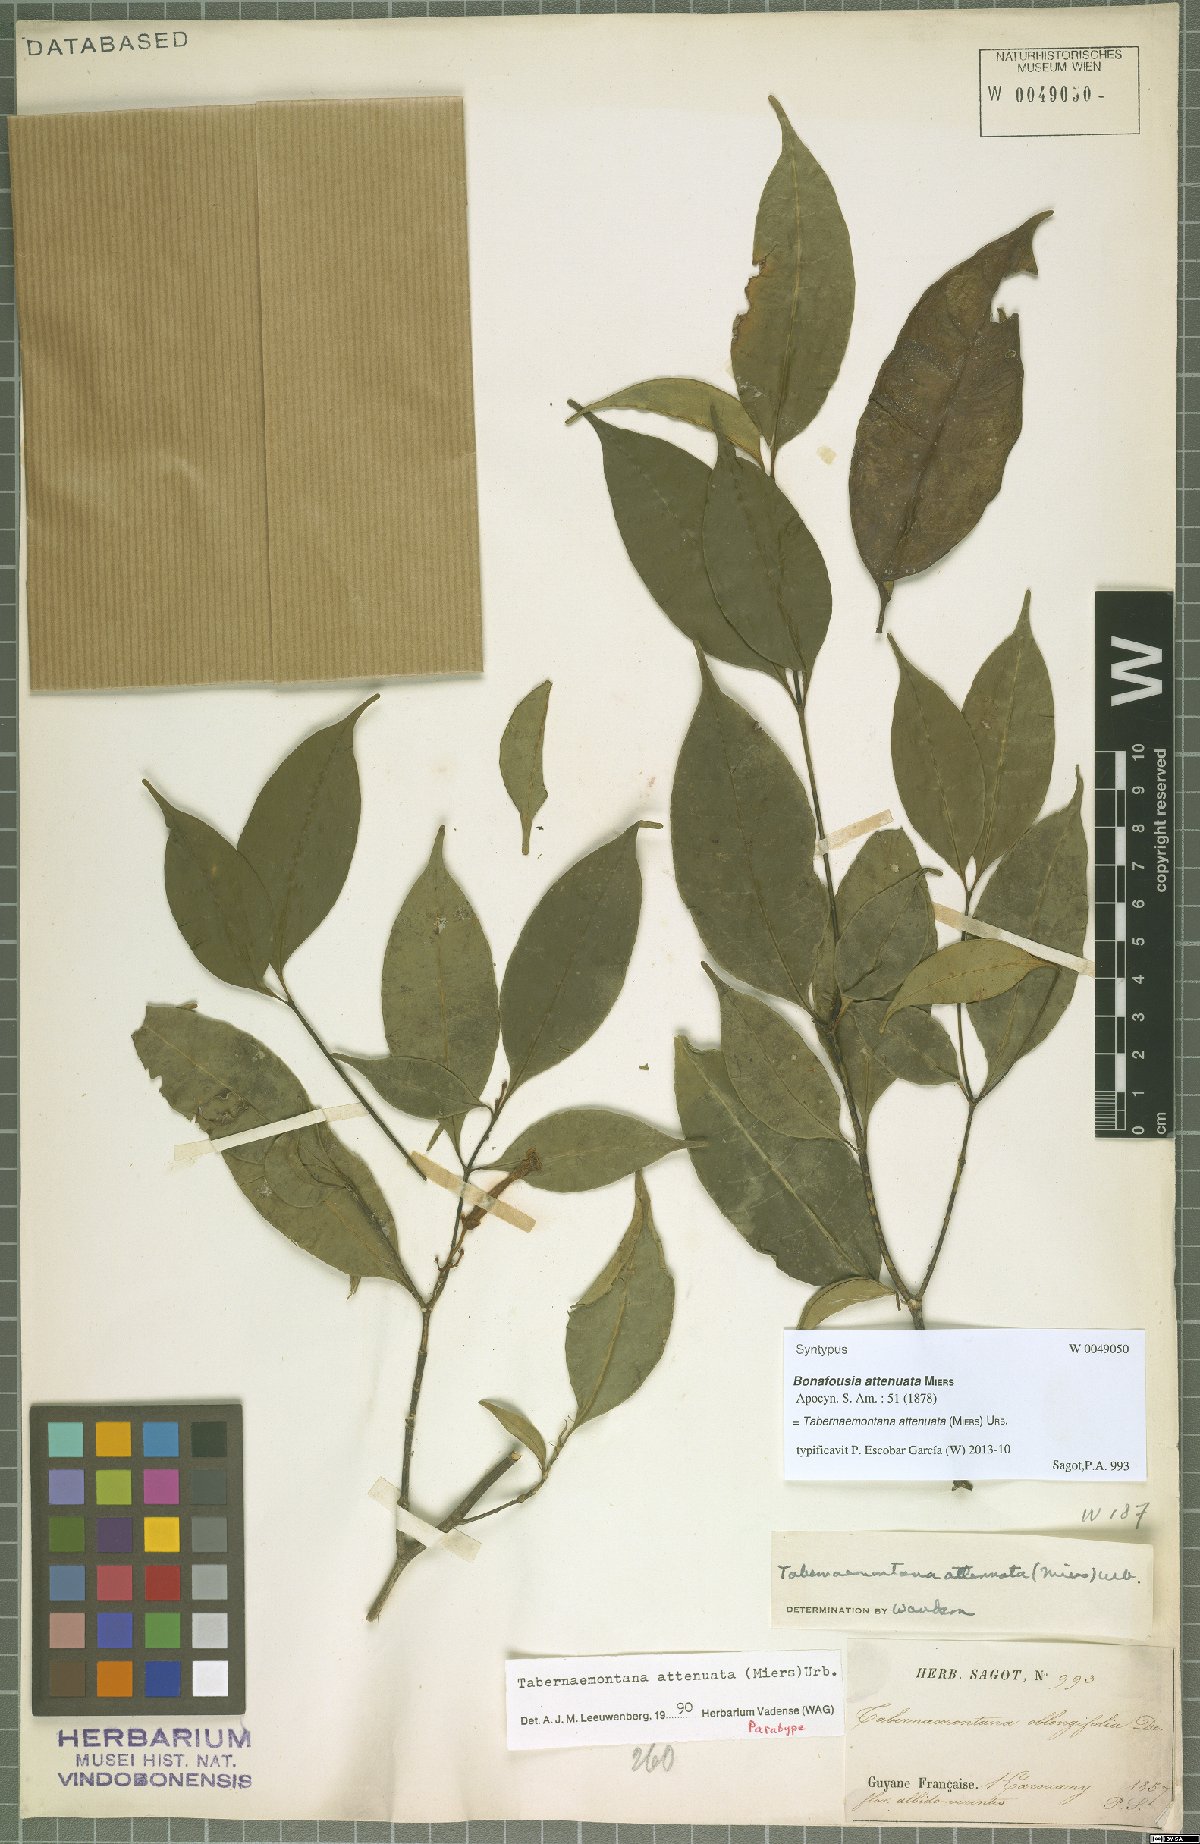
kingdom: Plantae
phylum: Tracheophyta
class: Magnoliopsida
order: Gentianales
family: Apocynaceae
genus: Tabernaemontana
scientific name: Tabernaemontana attenuata
